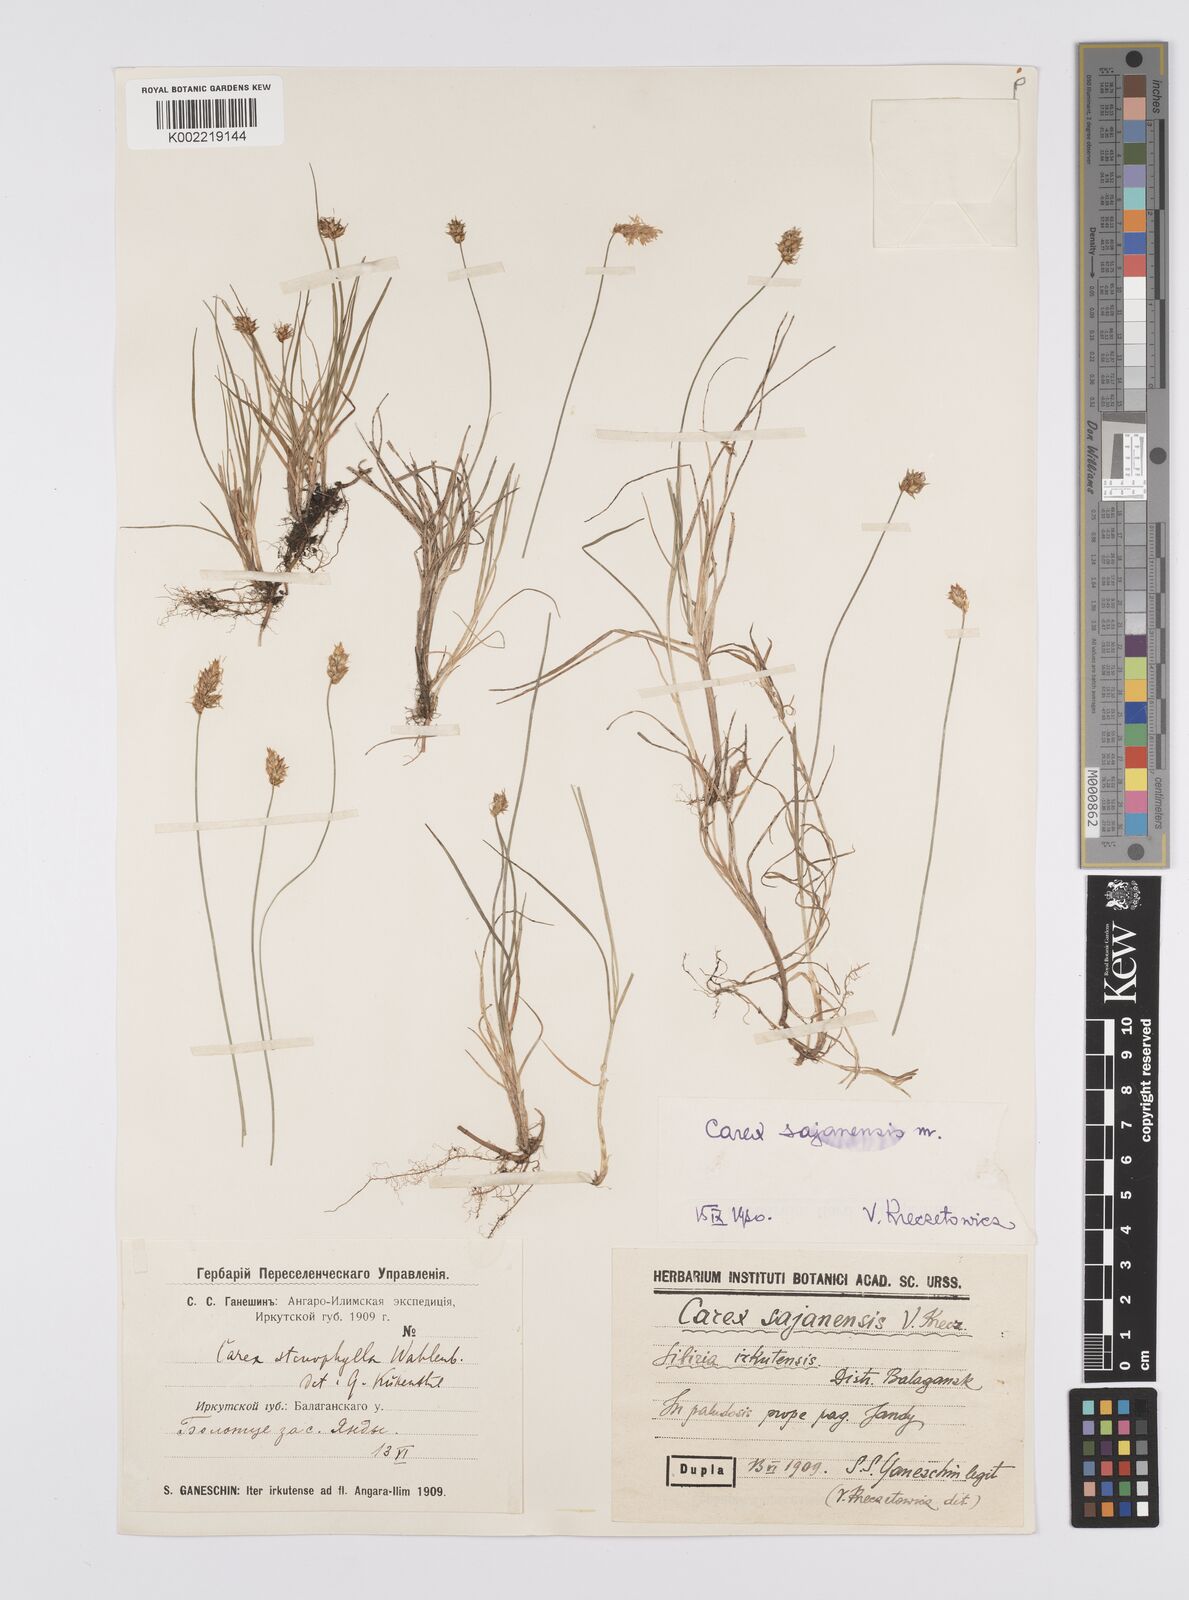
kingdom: Plantae
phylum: Tracheophyta
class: Liliopsida
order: Poales
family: Cyperaceae
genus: Carex
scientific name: Carex sajanensis
